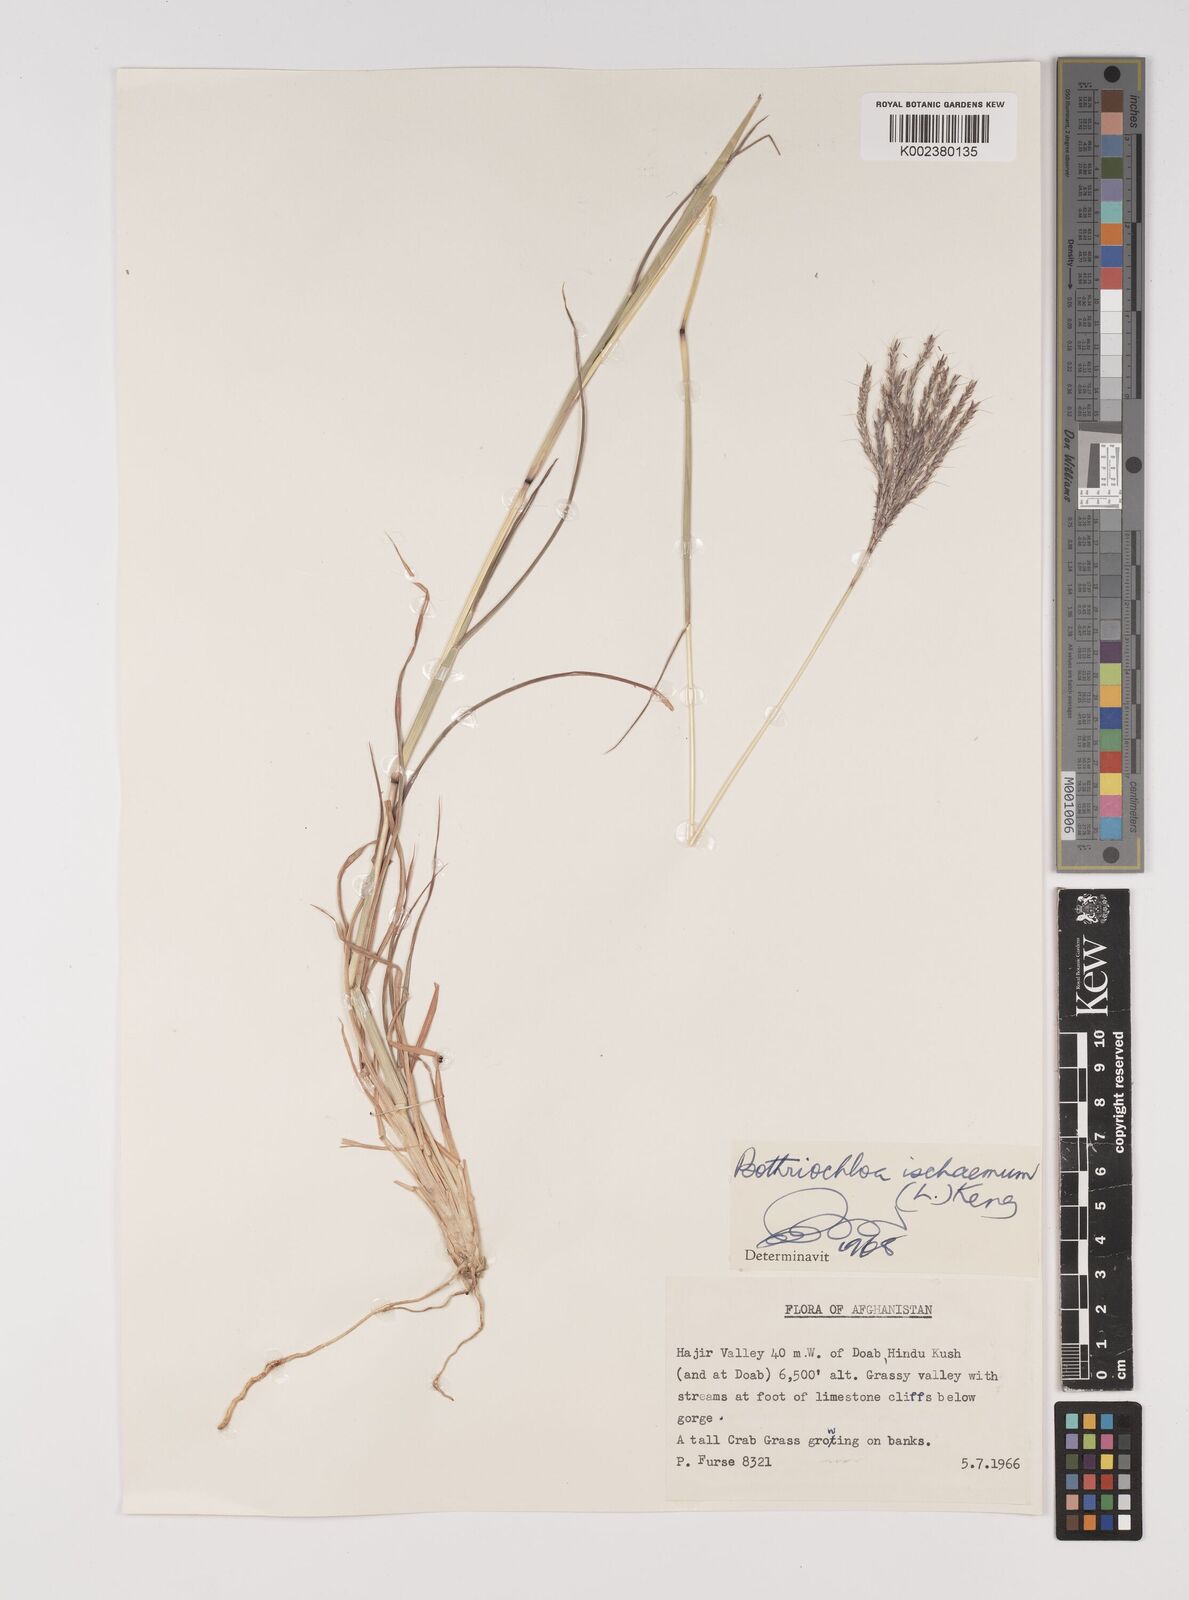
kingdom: Plantae
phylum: Tracheophyta
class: Liliopsida
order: Poales
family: Poaceae
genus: Bothriochloa
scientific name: Bothriochloa ischaemum
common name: Yellow bluestem
